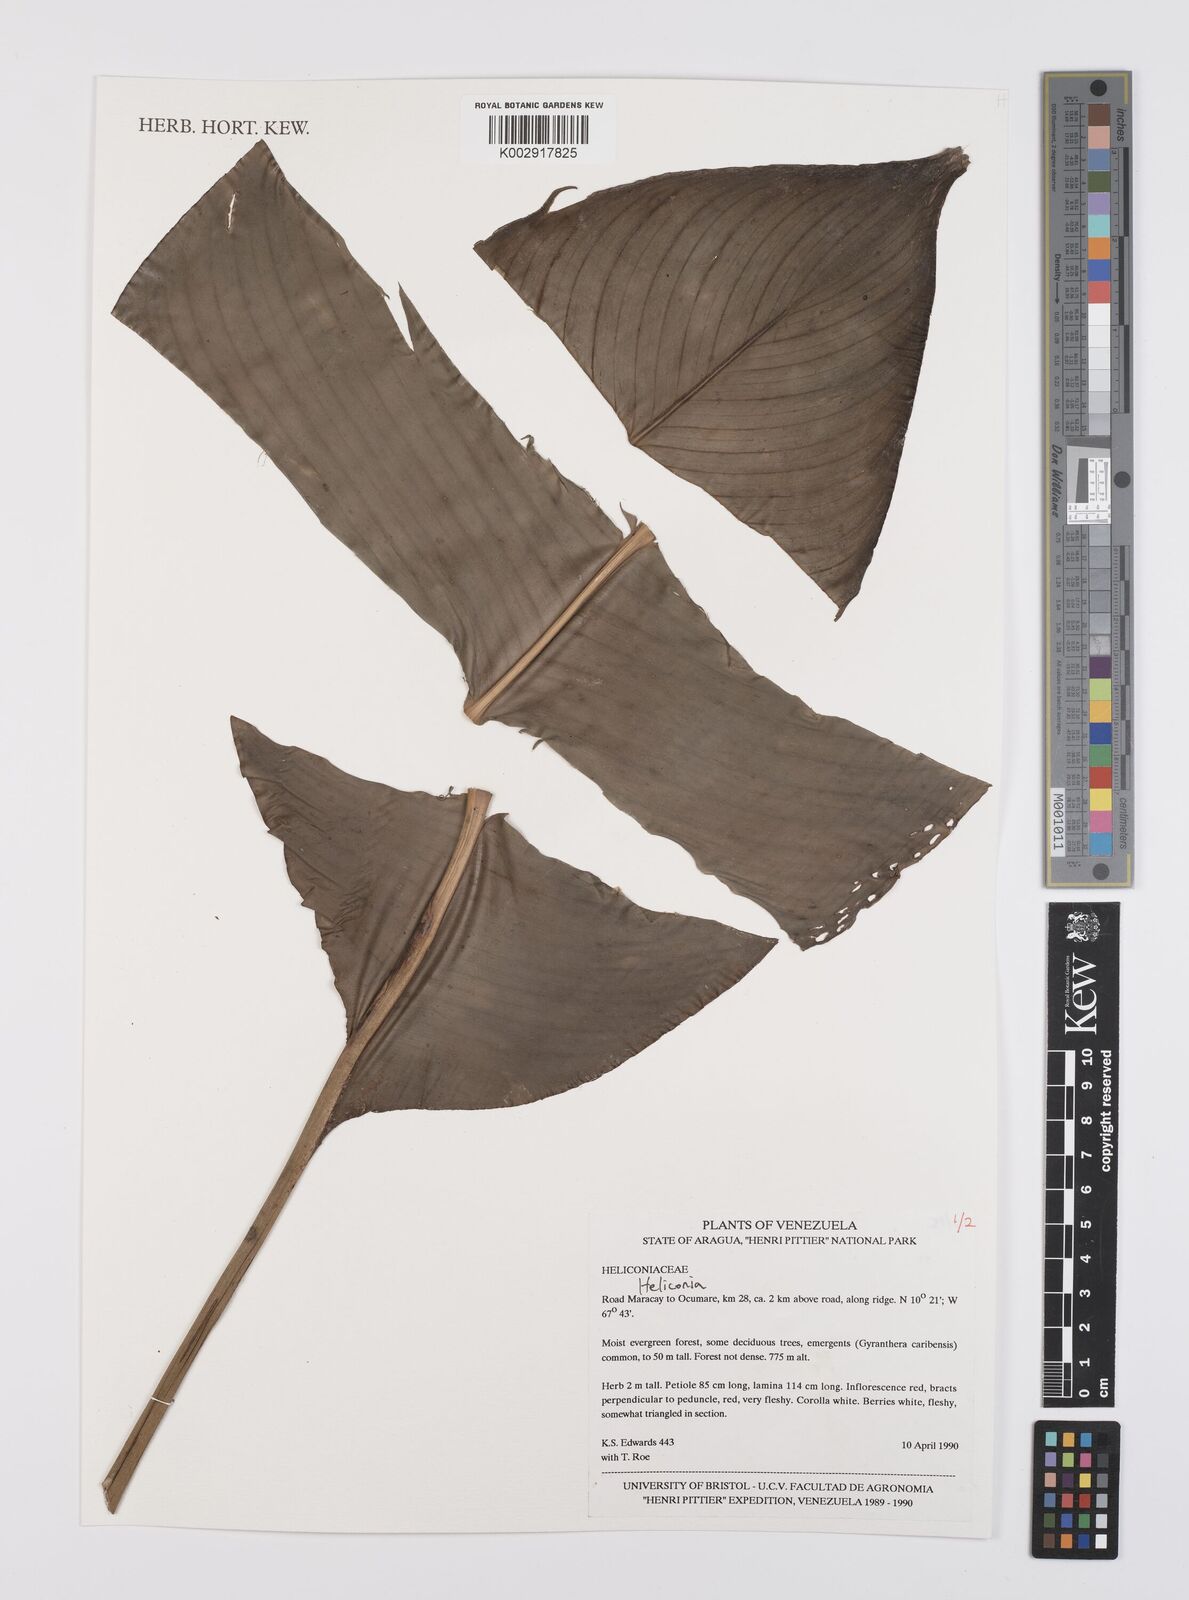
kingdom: Plantae
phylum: Tracheophyta
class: Liliopsida
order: Zingiberales
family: Heliconiaceae
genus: Heliconia
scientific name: Heliconia
